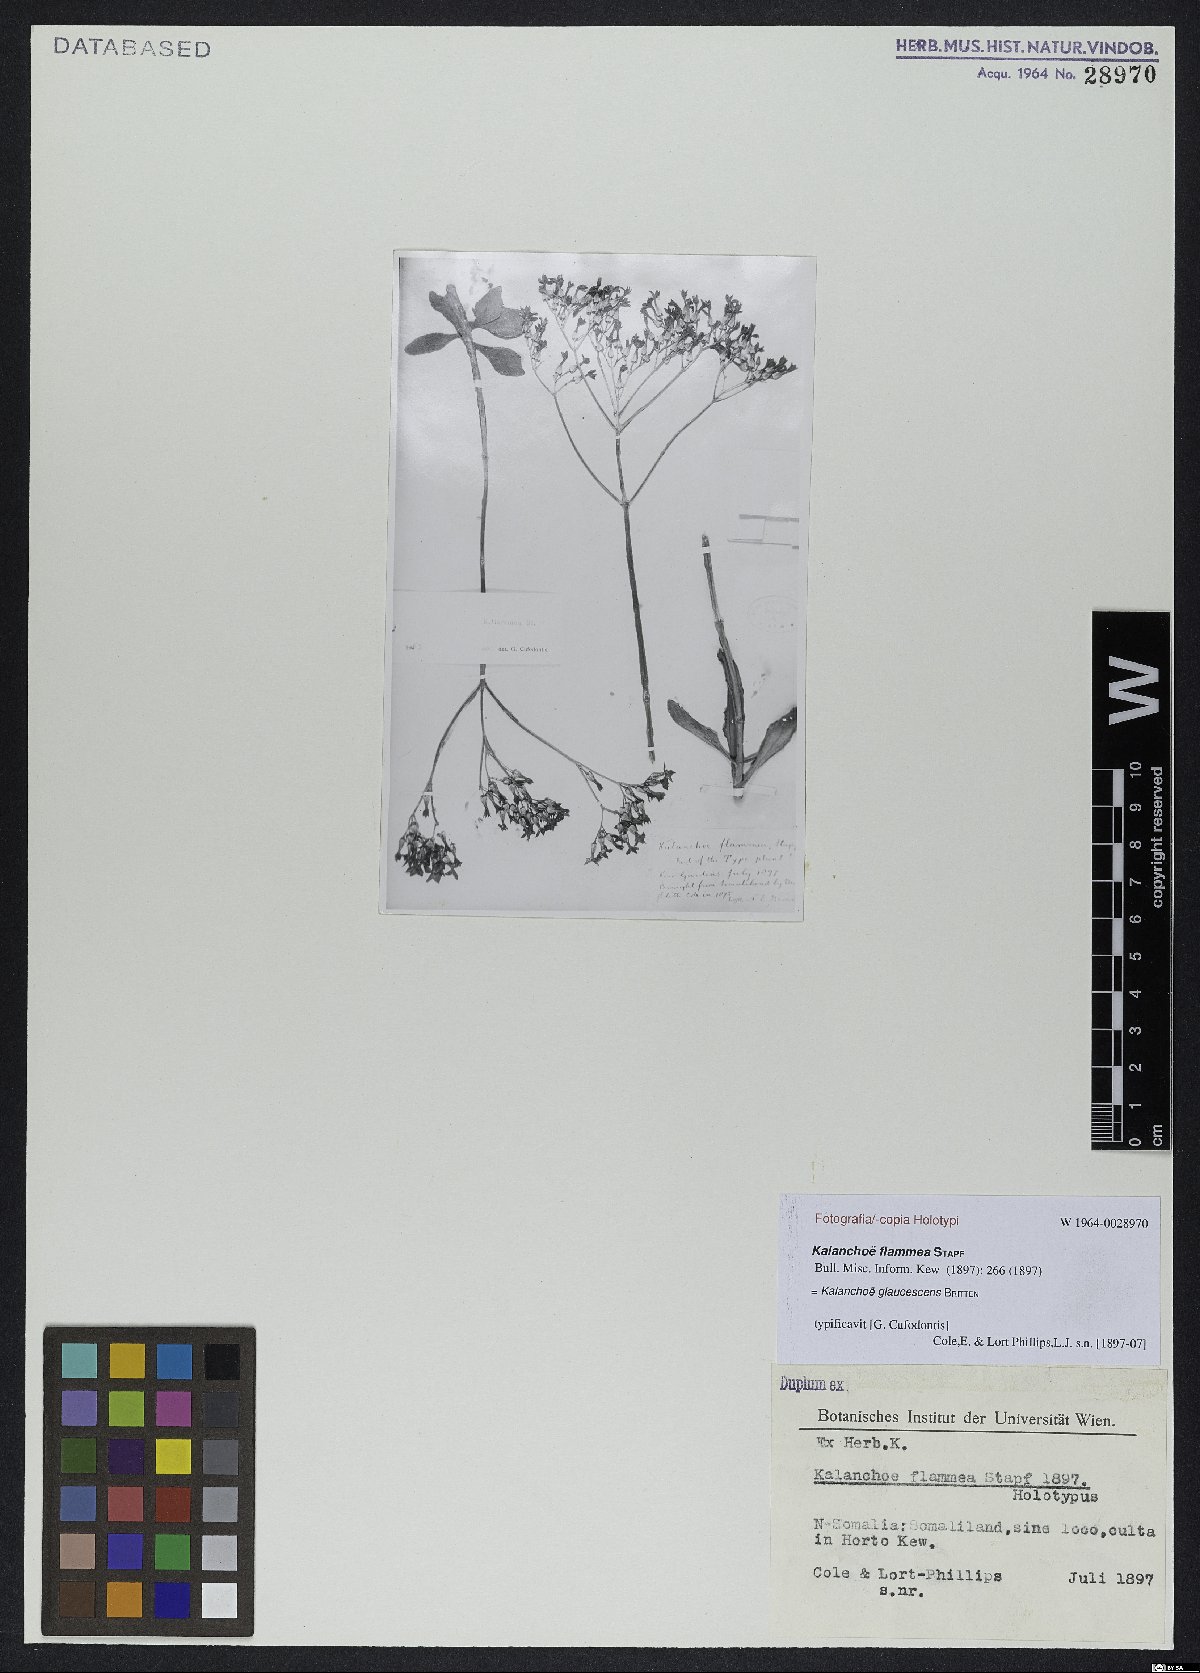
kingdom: Plantae
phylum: Tracheophyta
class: Magnoliopsida
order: Saxifragales
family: Crassulaceae
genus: Kalanchoe
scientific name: Kalanchoe glaucescens
